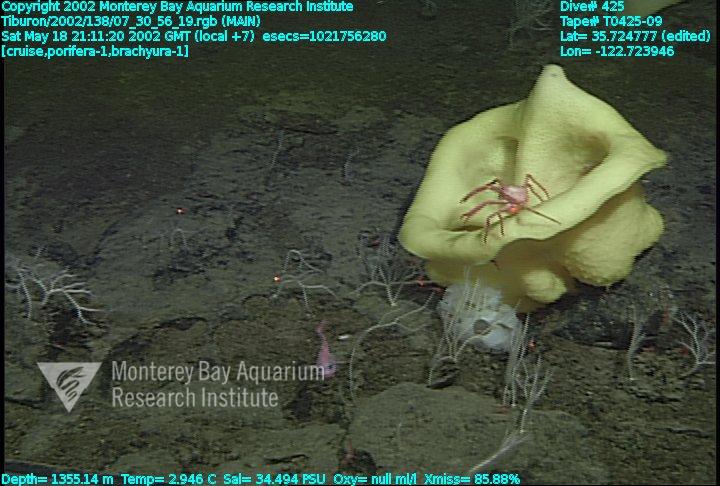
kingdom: Animalia
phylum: Porifera
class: Demospongiae
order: Poecilosclerida
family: Cladorhizidae
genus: Asbestopluma
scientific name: Asbestopluma monticola
